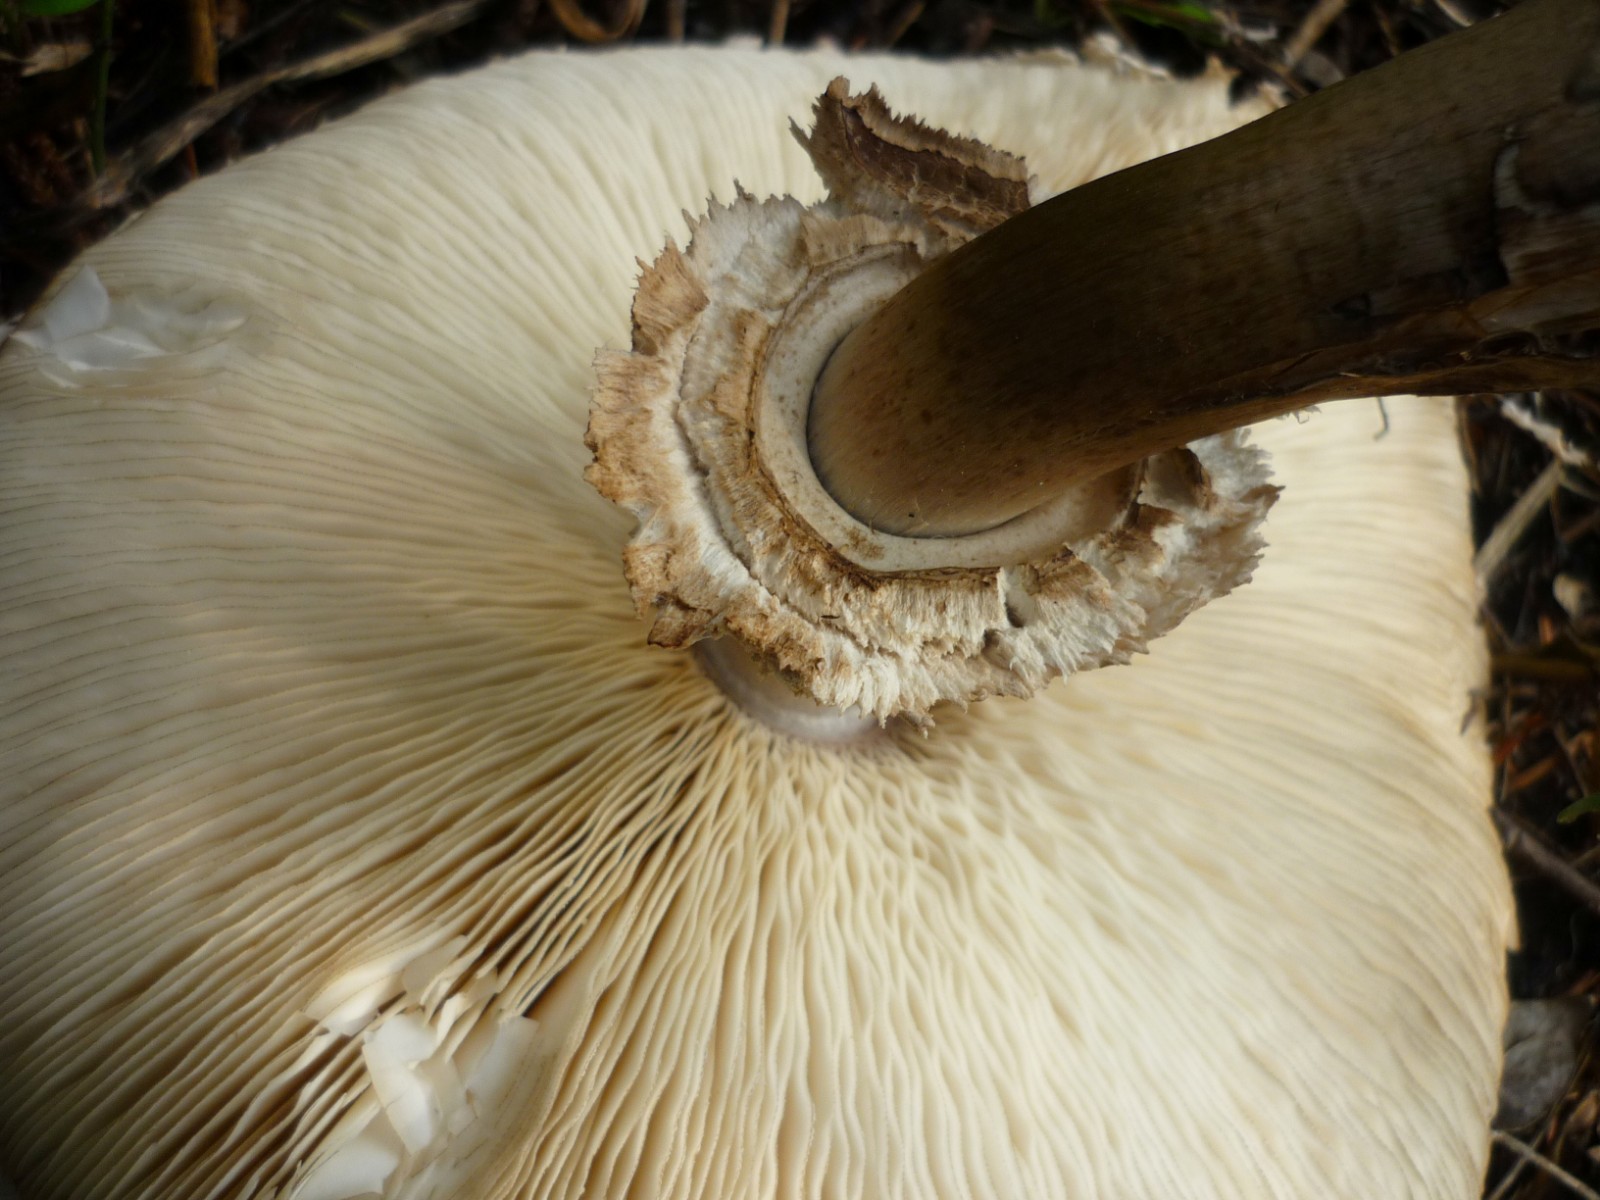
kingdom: Fungi
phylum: Basidiomycota
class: Agaricomycetes
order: Agaricales
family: Agaricaceae
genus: Chlorophyllum
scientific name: Chlorophyllum rhacodes
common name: ægte rabarberhat
